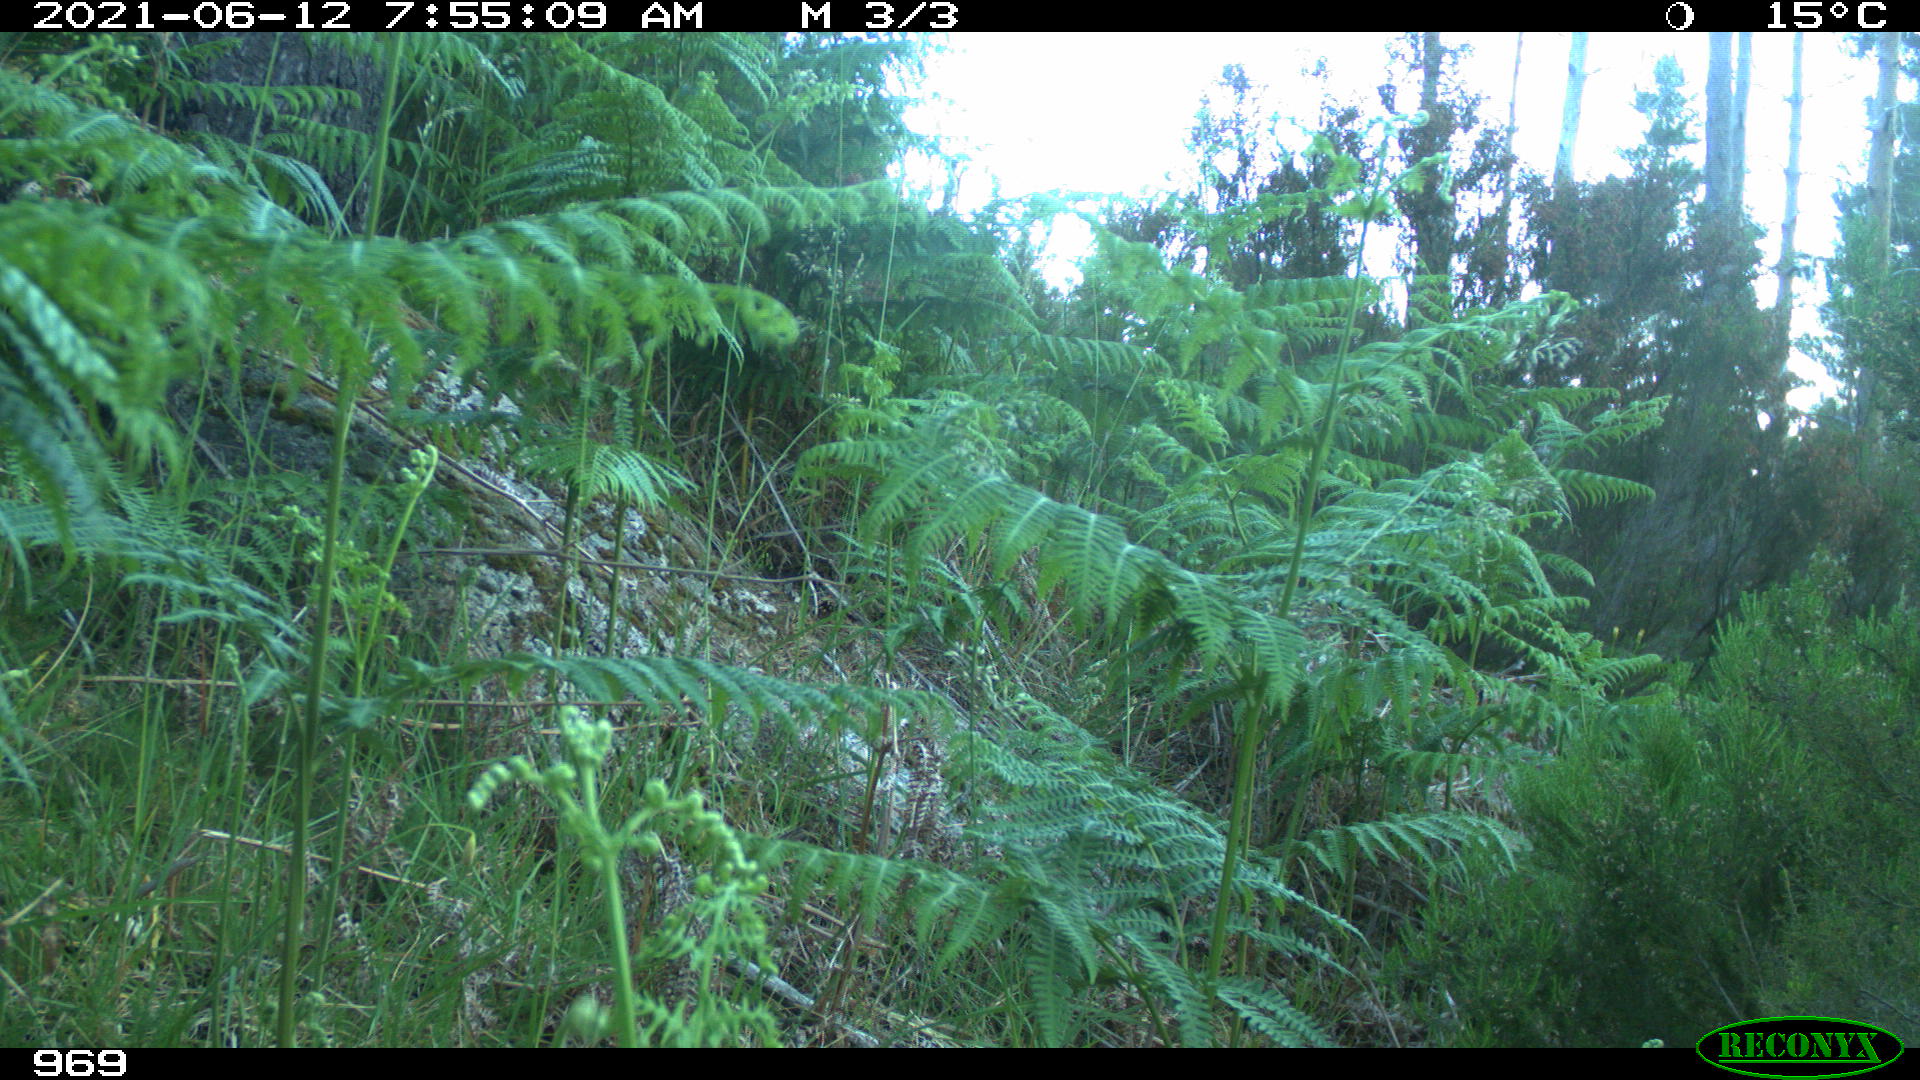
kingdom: Animalia
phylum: Chordata
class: Mammalia
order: Artiodactyla
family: Suidae
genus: Sus
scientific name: Sus scrofa
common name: Wild boar
